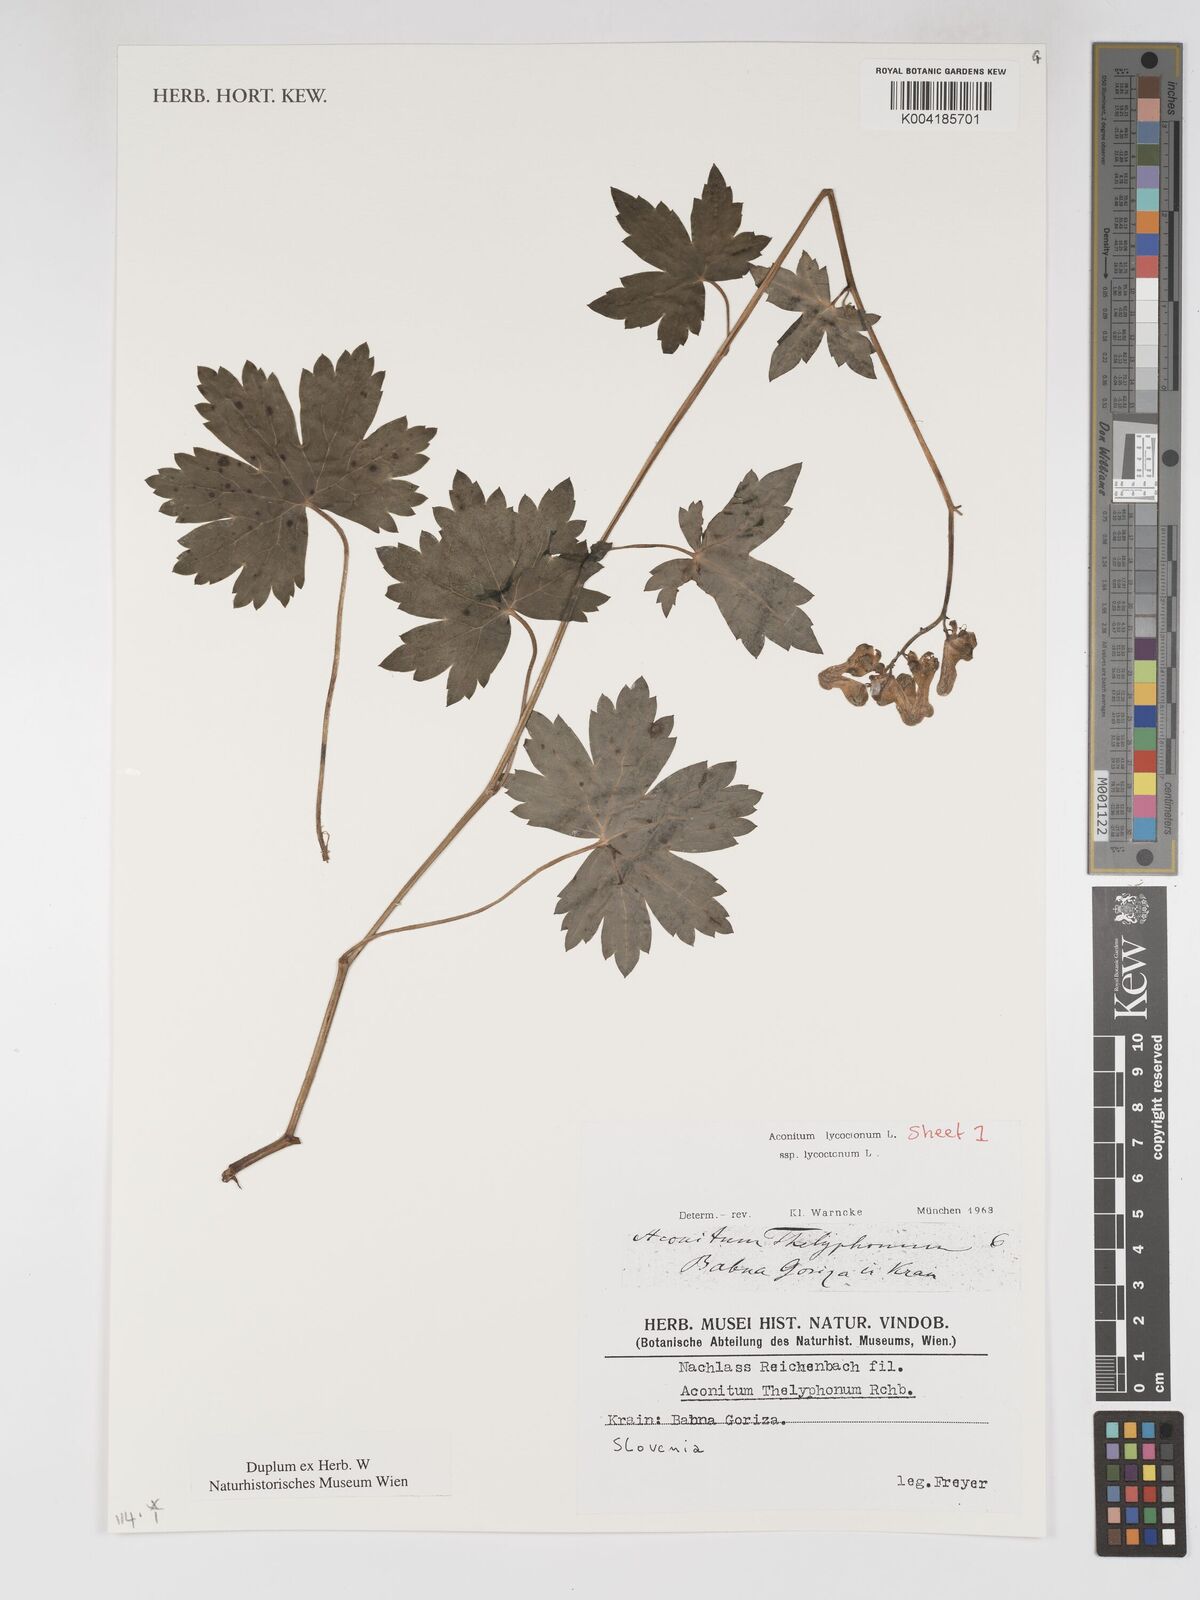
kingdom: Plantae
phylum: Tracheophyta
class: Magnoliopsida
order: Ranunculales
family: Ranunculaceae
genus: Aconitum
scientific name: Aconitum lycoctonum
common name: Wolf's-bane
